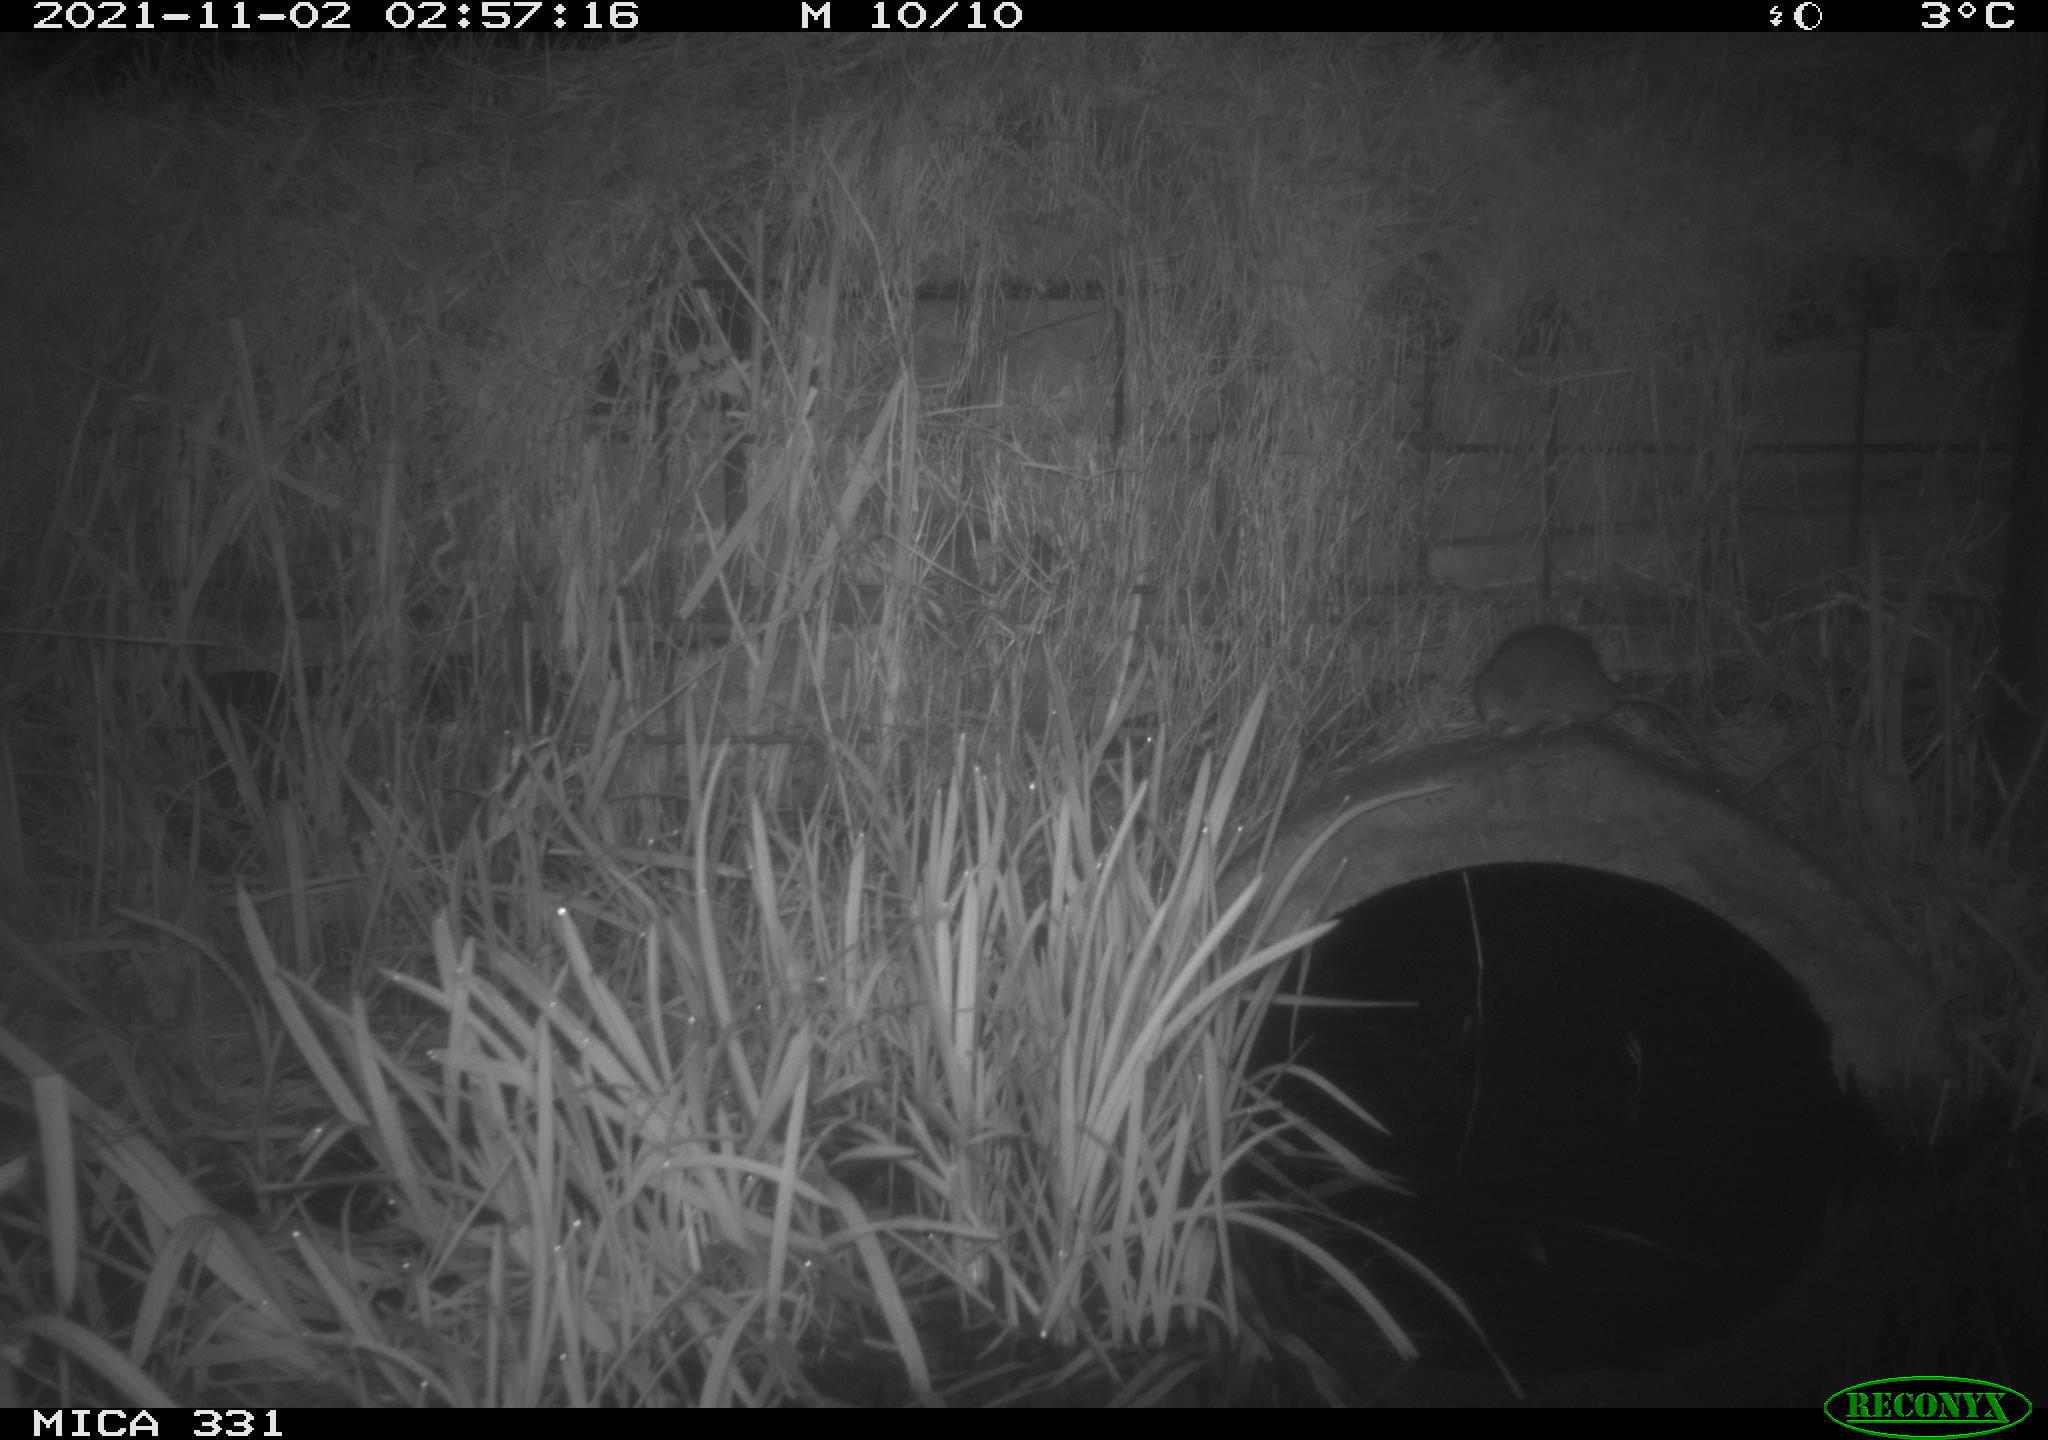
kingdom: Animalia
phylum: Chordata
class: Mammalia
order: Rodentia
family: Muridae
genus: Rattus
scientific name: Rattus norvegicus
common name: Brown rat
